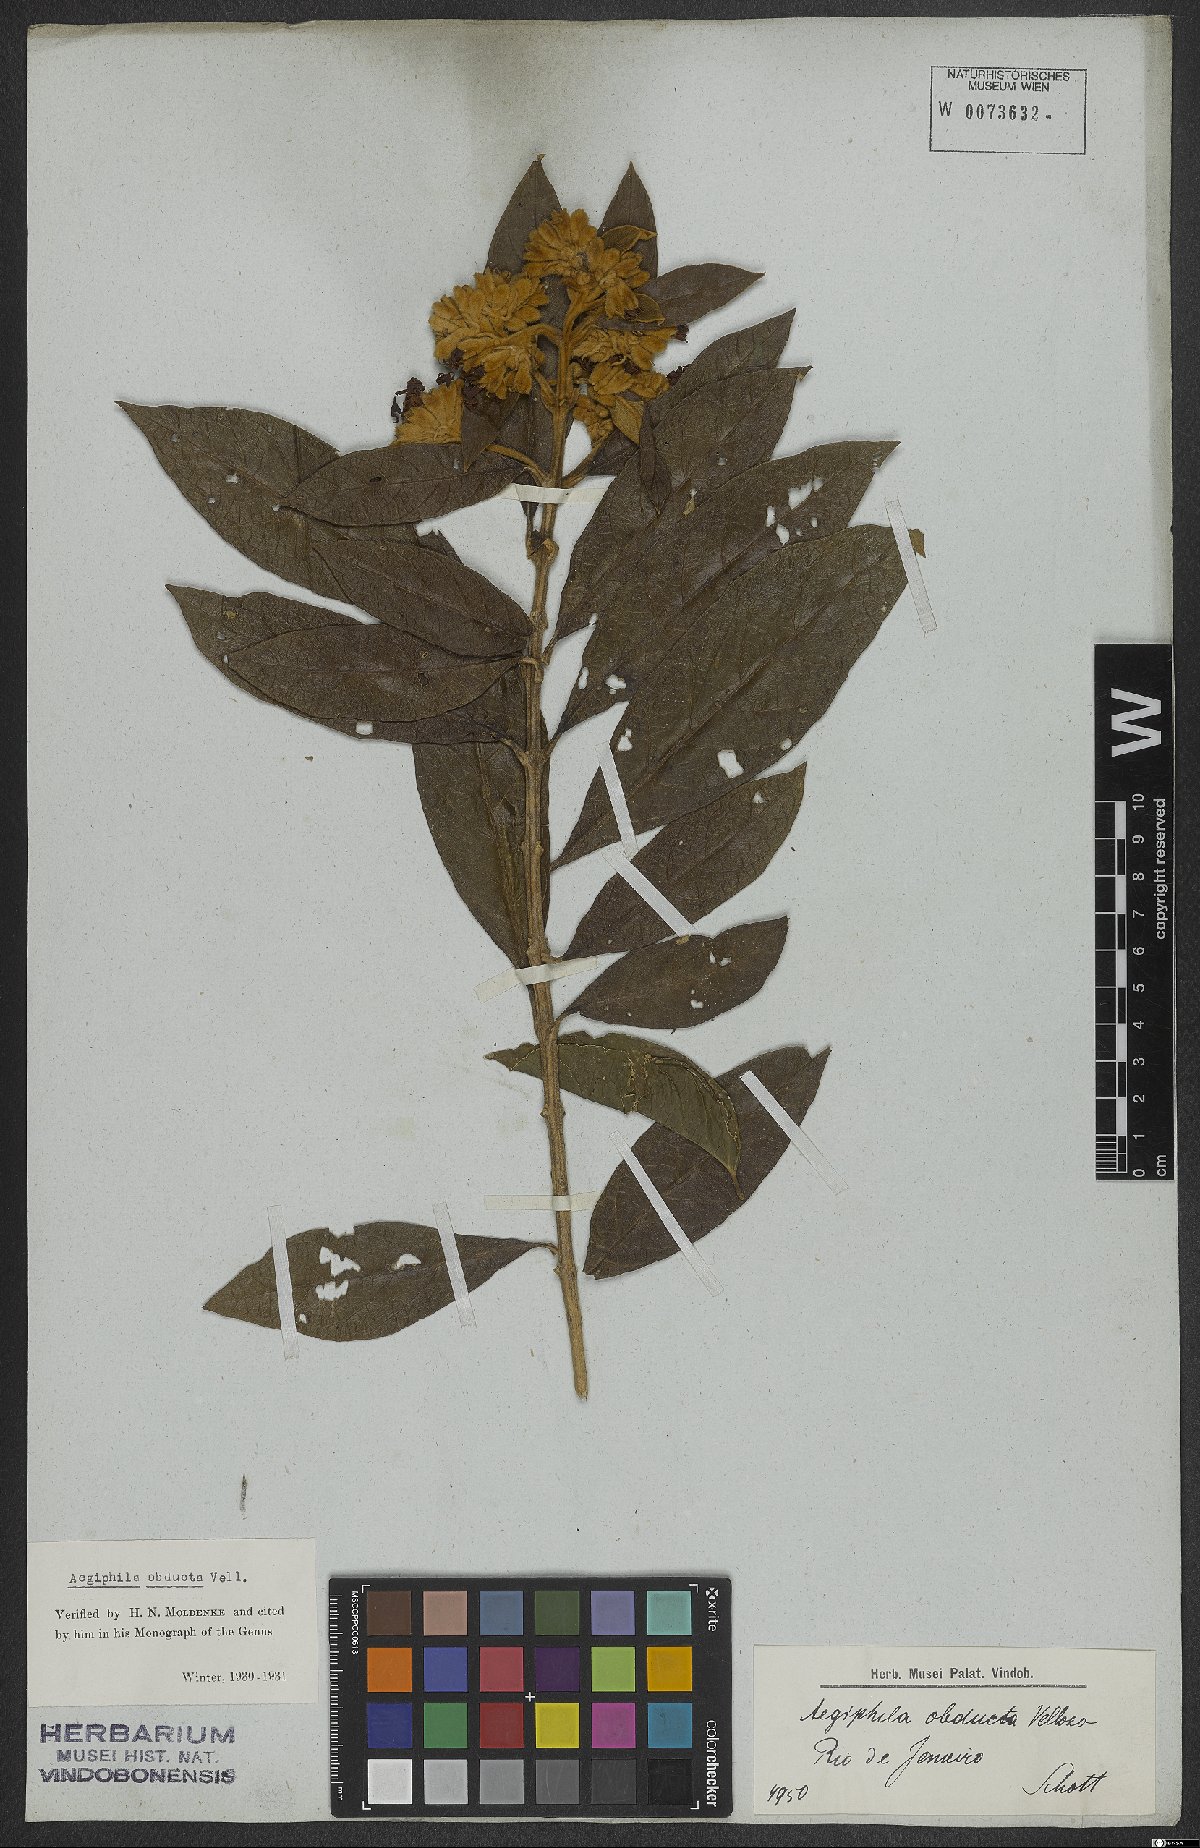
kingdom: Plantae
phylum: Tracheophyta
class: Magnoliopsida
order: Lamiales
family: Lamiaceae
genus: Aegiphila
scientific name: Aegiphila obducta
